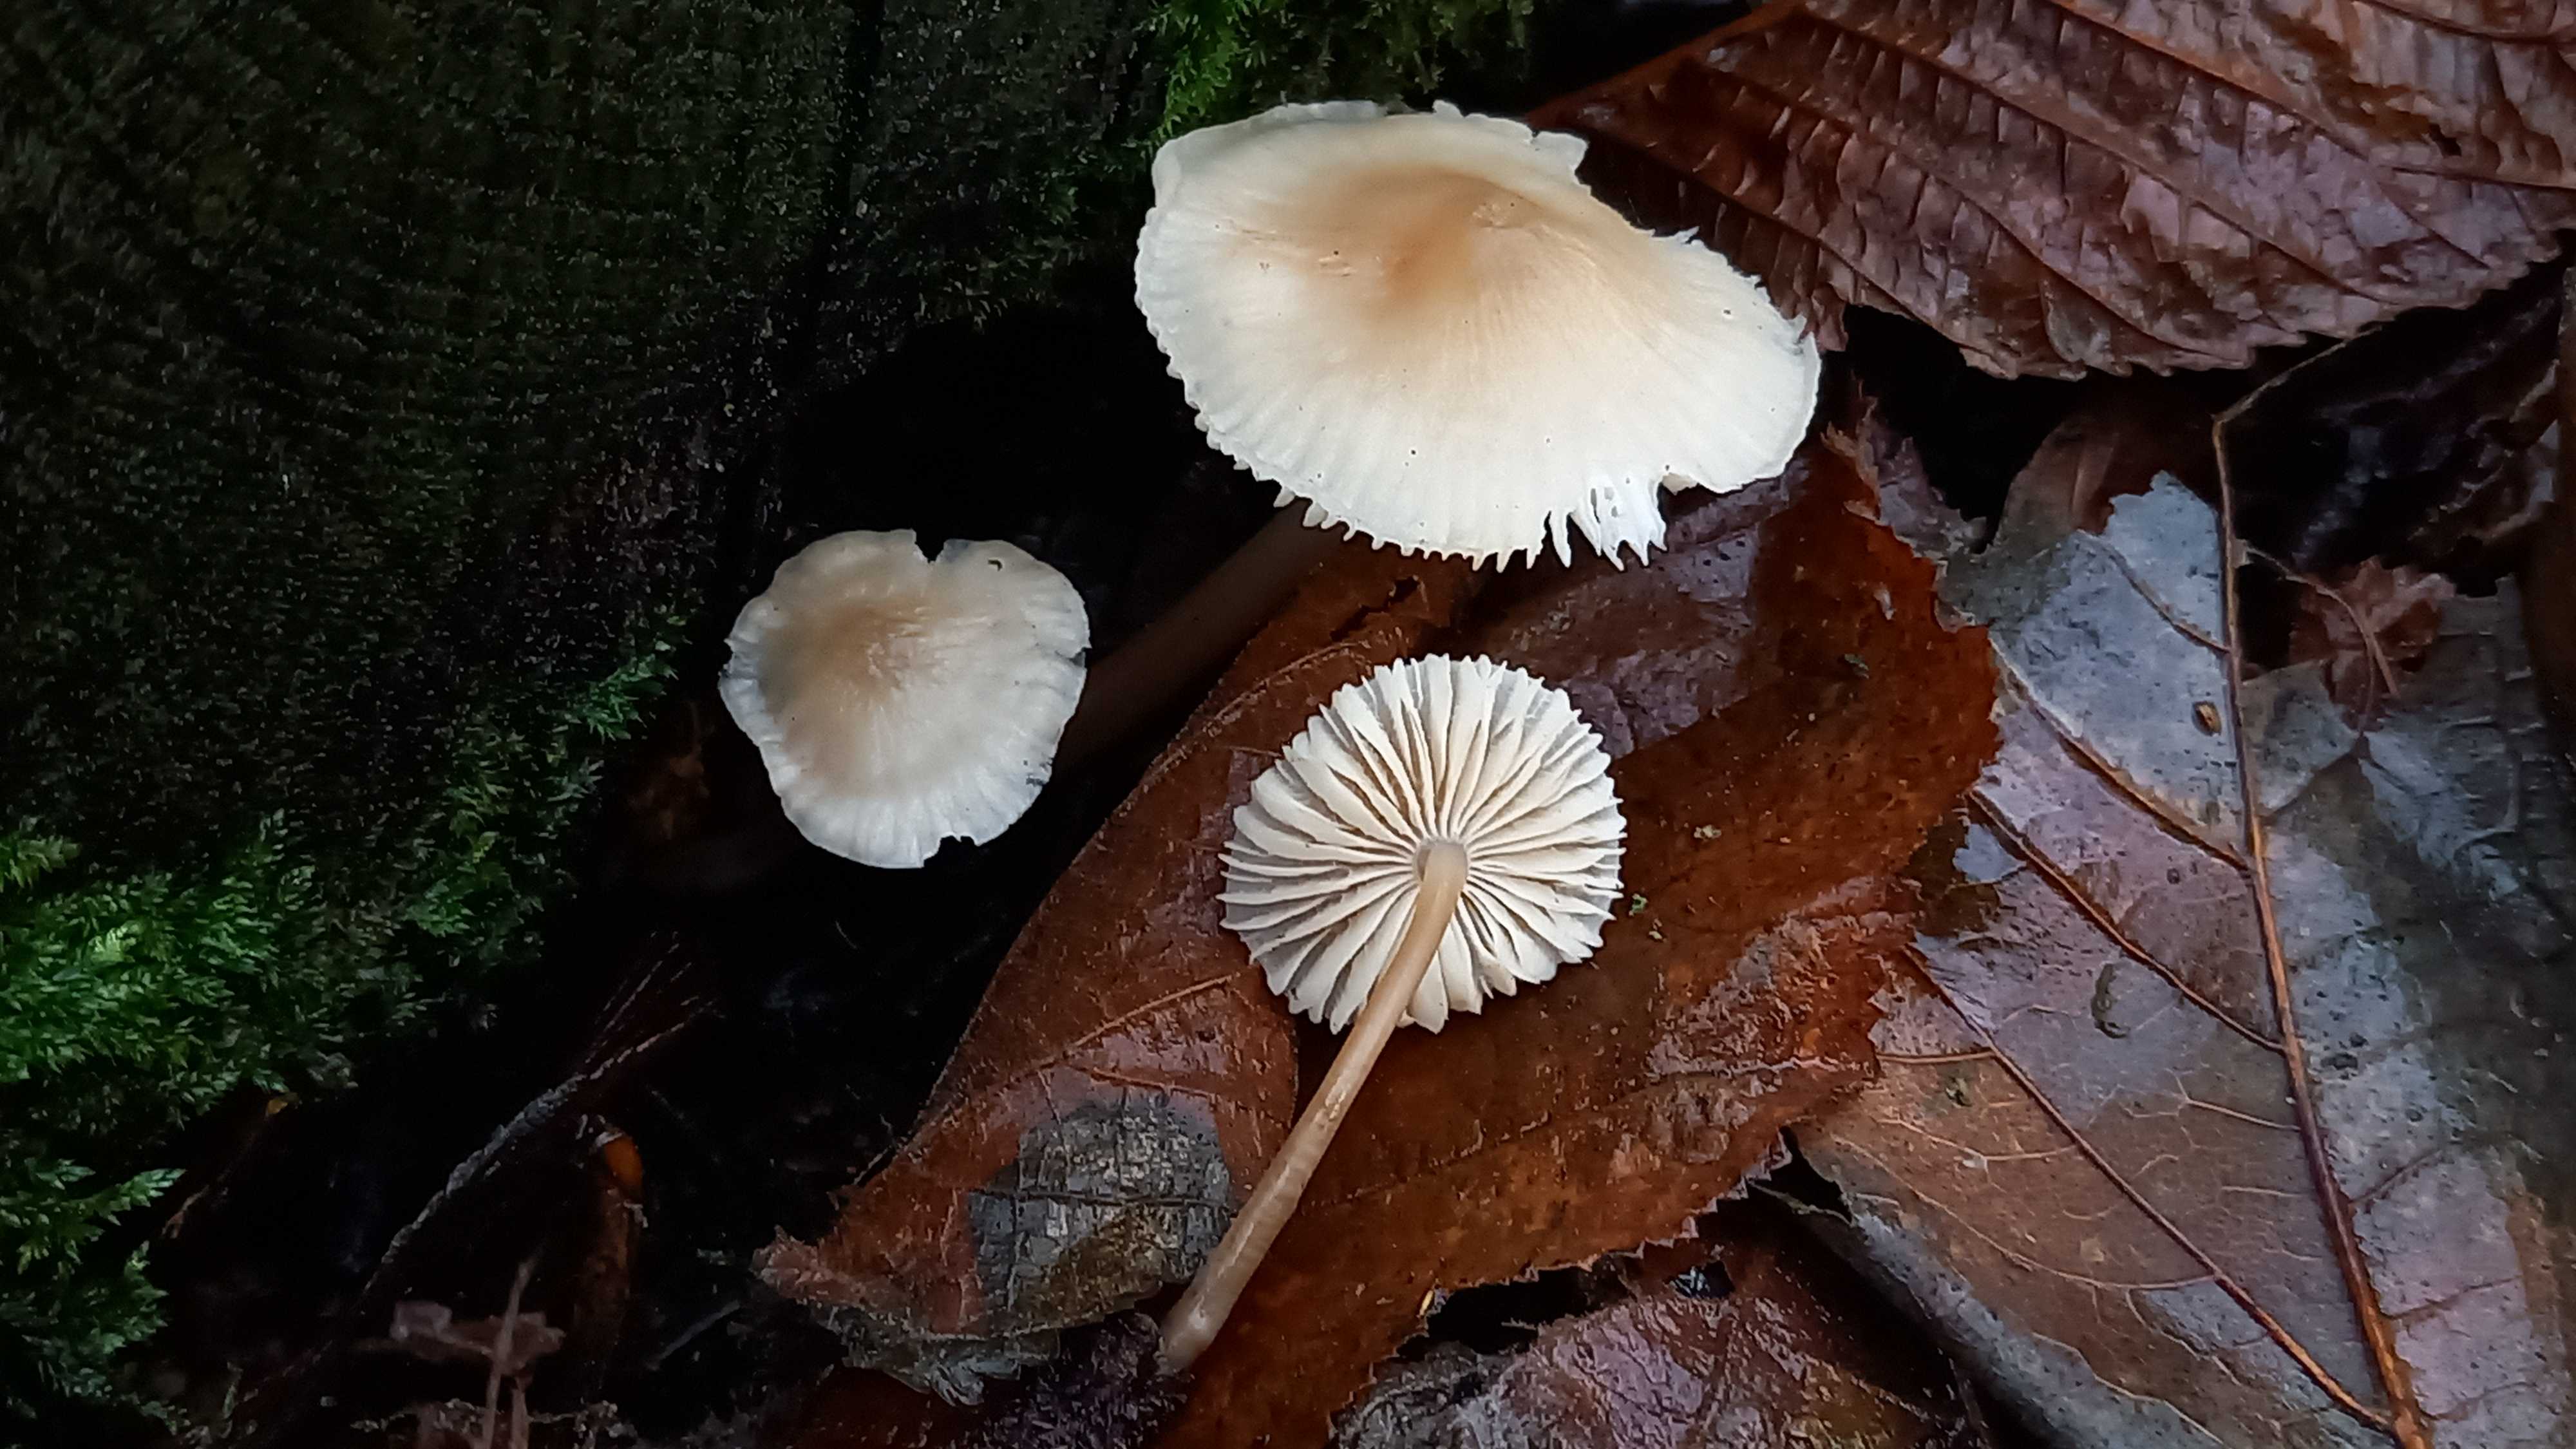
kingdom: Fungi
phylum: Basidiomycota
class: Agaricomycetes
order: Agaricales
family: Mycenaceae
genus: Mycena
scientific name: Mycena galericulata
